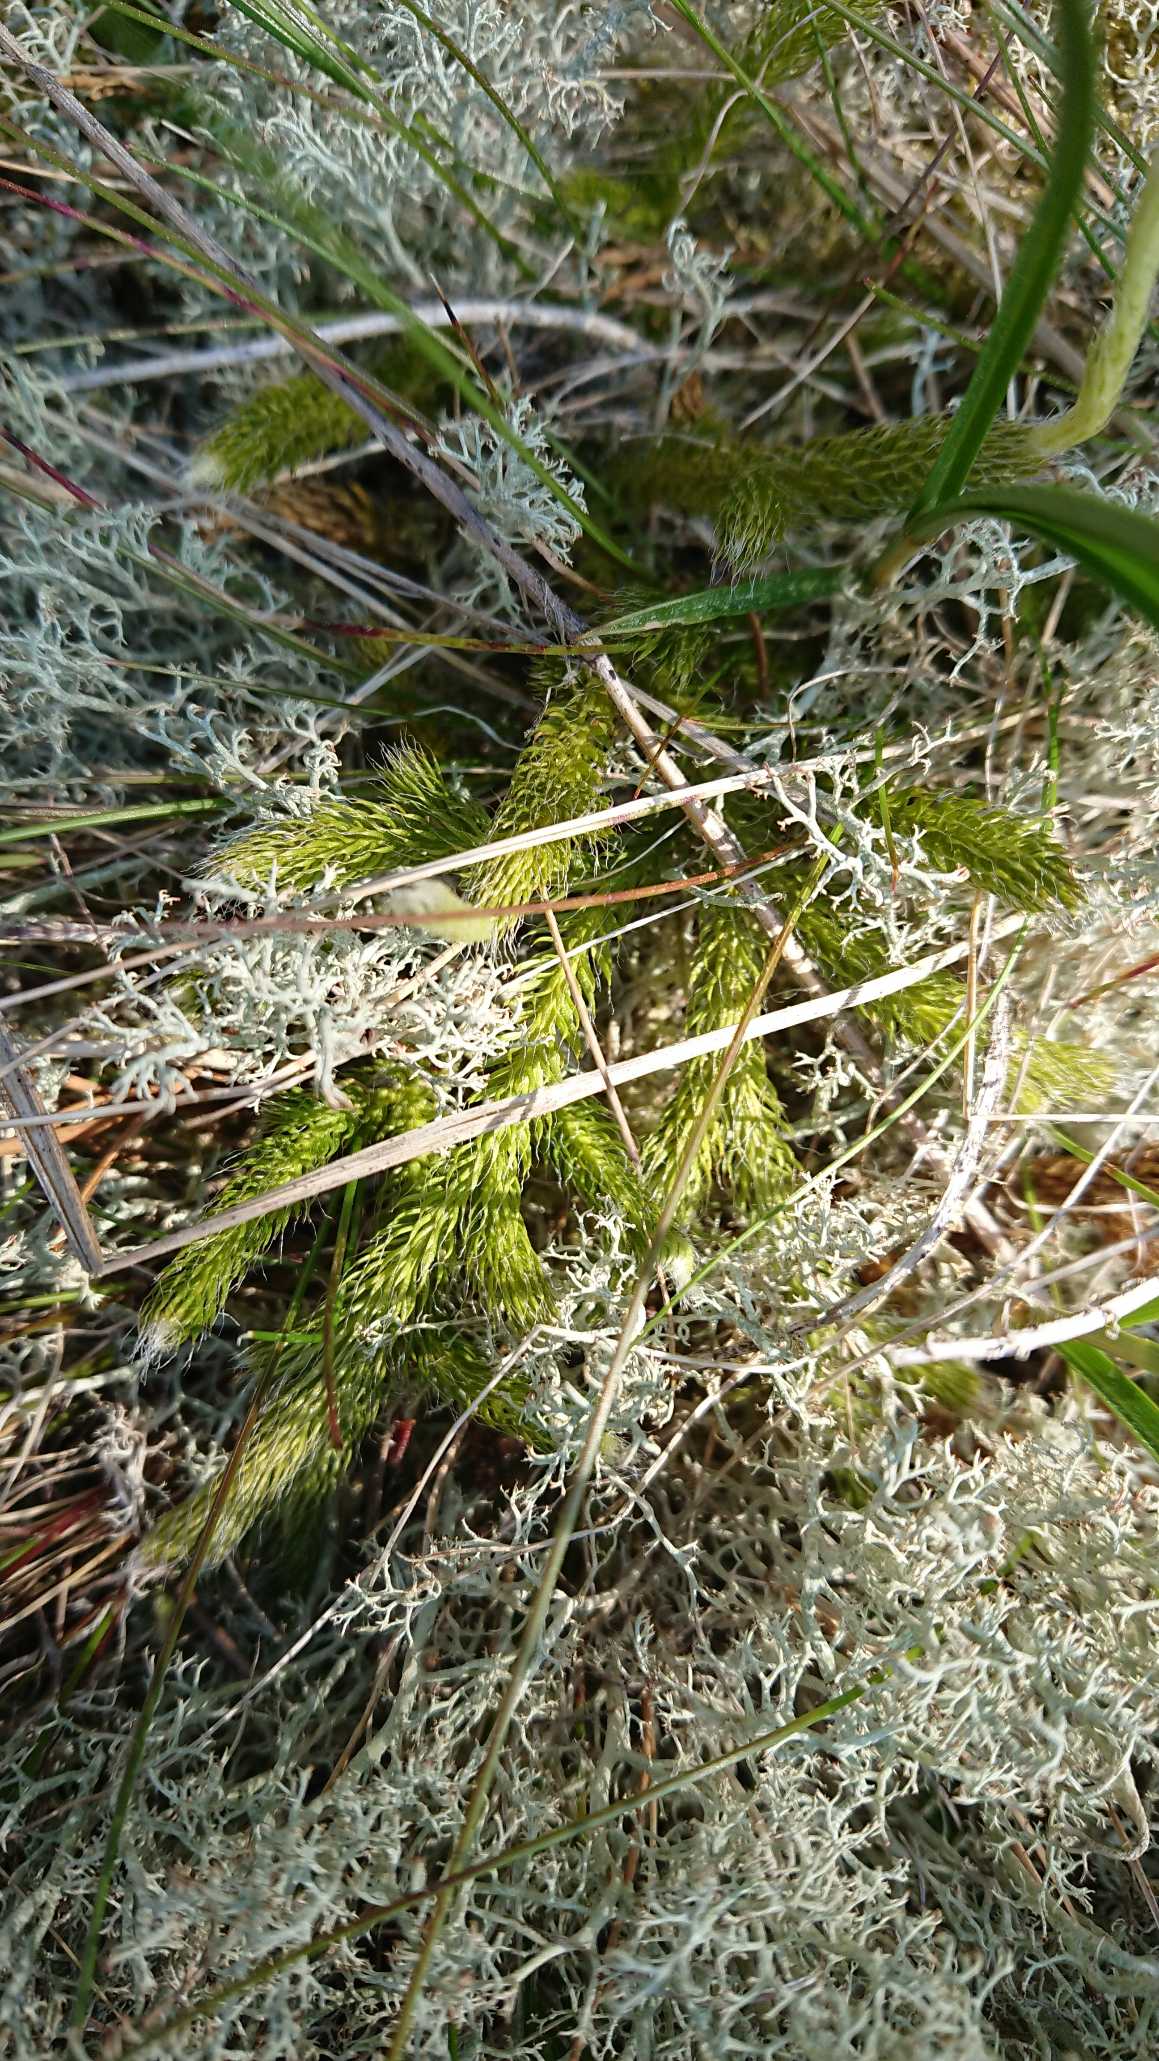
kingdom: Plantae
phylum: Tracheophyta
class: Lycopodiopsida
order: Lycopodiales
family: Lycopodiaceae
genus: Lycopodium
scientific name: Lycopodium clavatum
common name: Almindelig ulvefod
